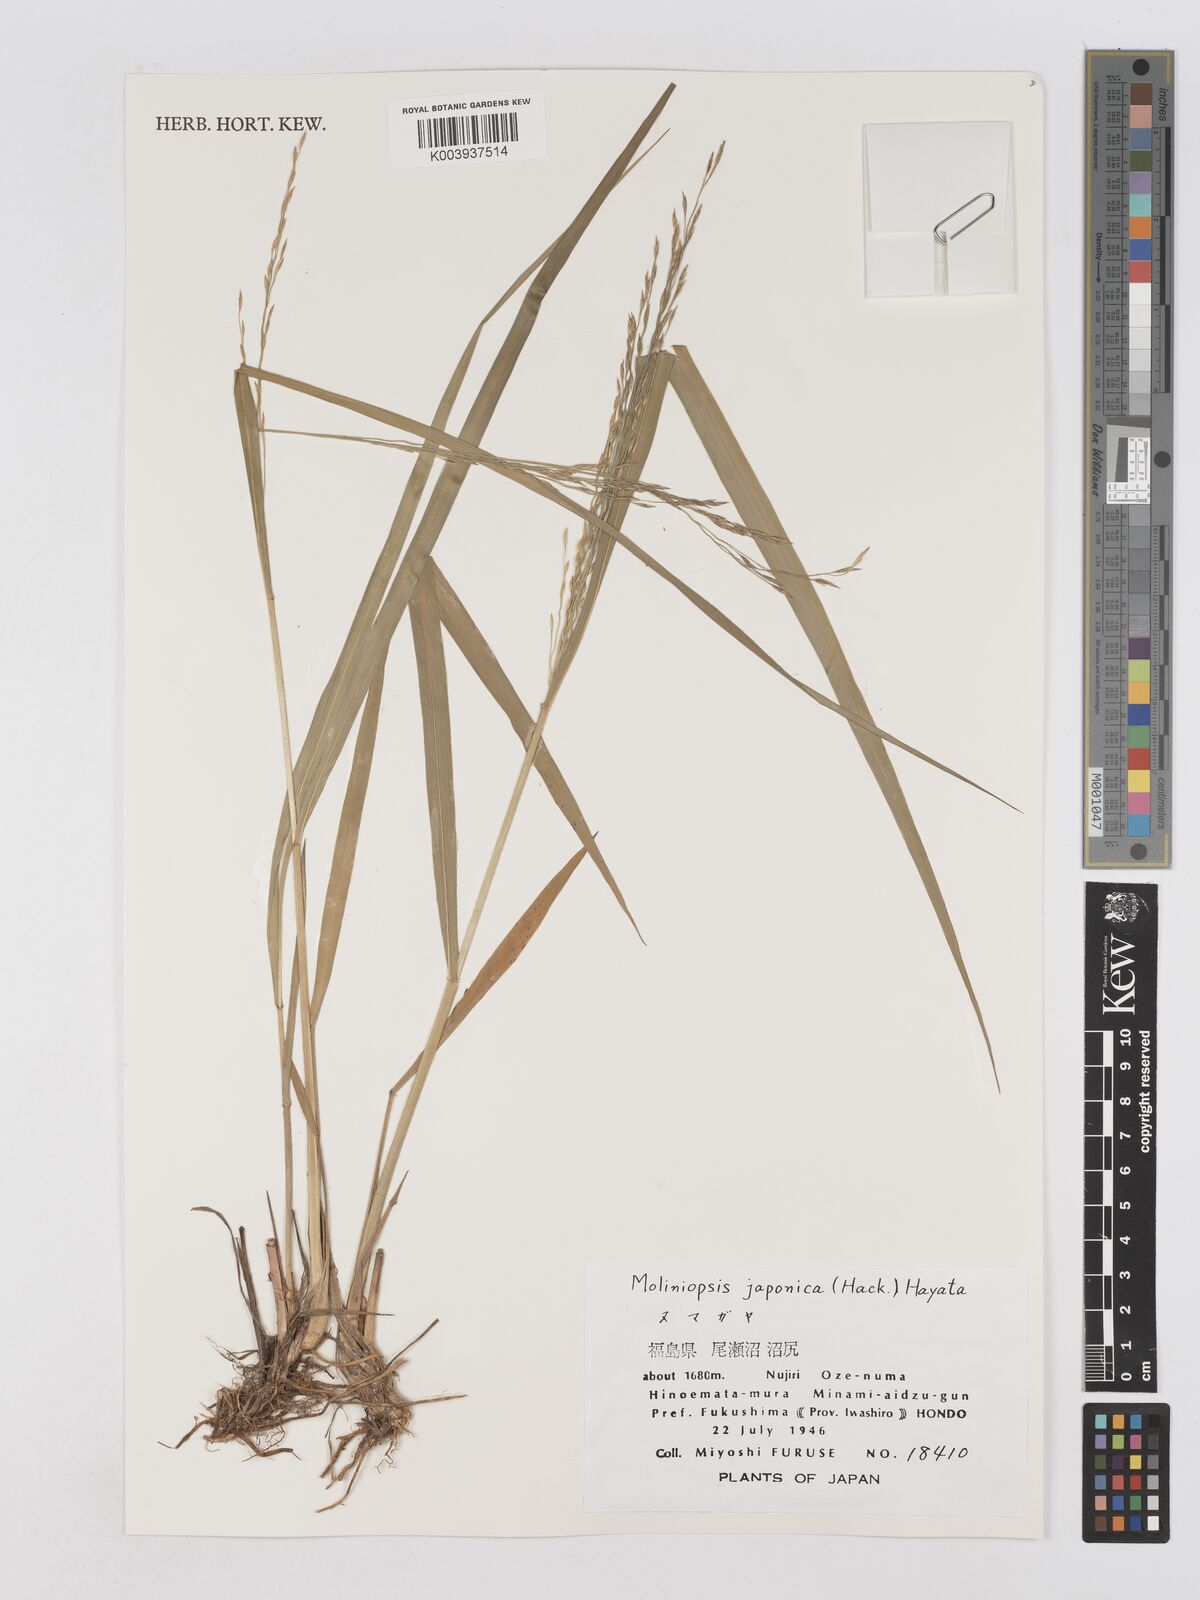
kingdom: Plantae
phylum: Tracheophyta
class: Liliopsida
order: Poales
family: Poaceae
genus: Moliniopsis
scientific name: Moliniopsis japonica
